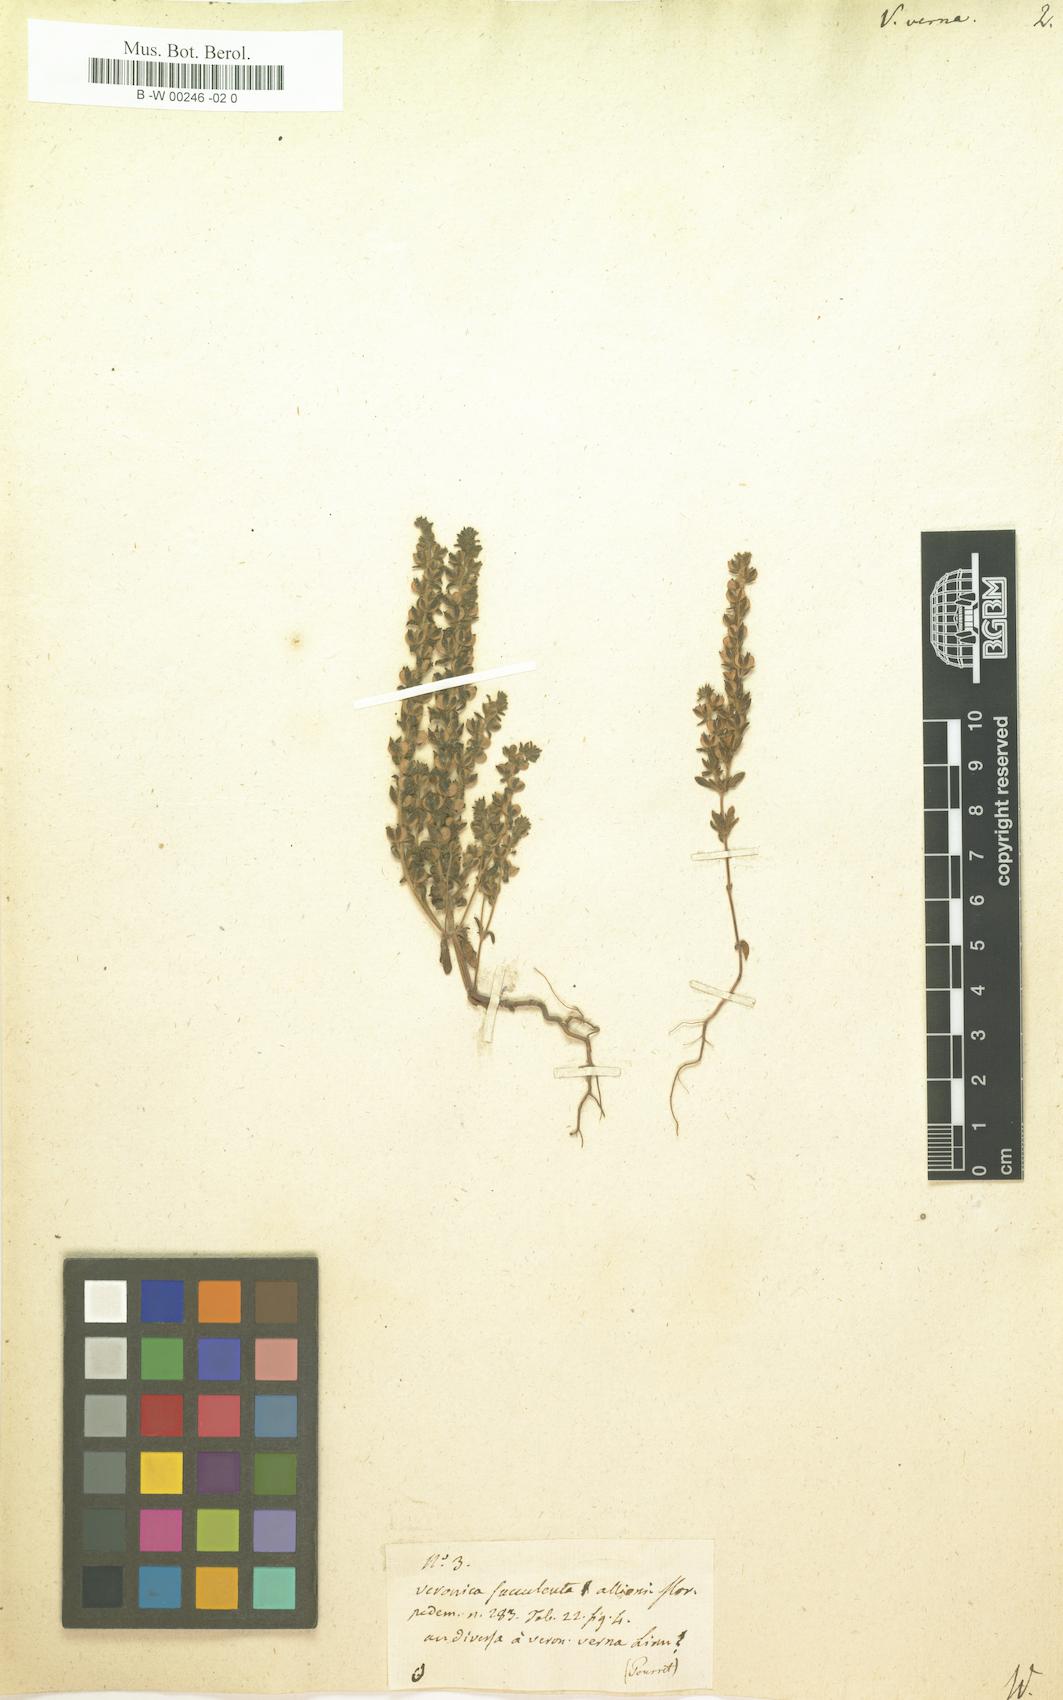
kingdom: Plantae
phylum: Tracheophyta
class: Magnoliopsida
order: Lamiales
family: Plantaginaceae
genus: Veronica
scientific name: Veronica verna
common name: Spring speedwell
